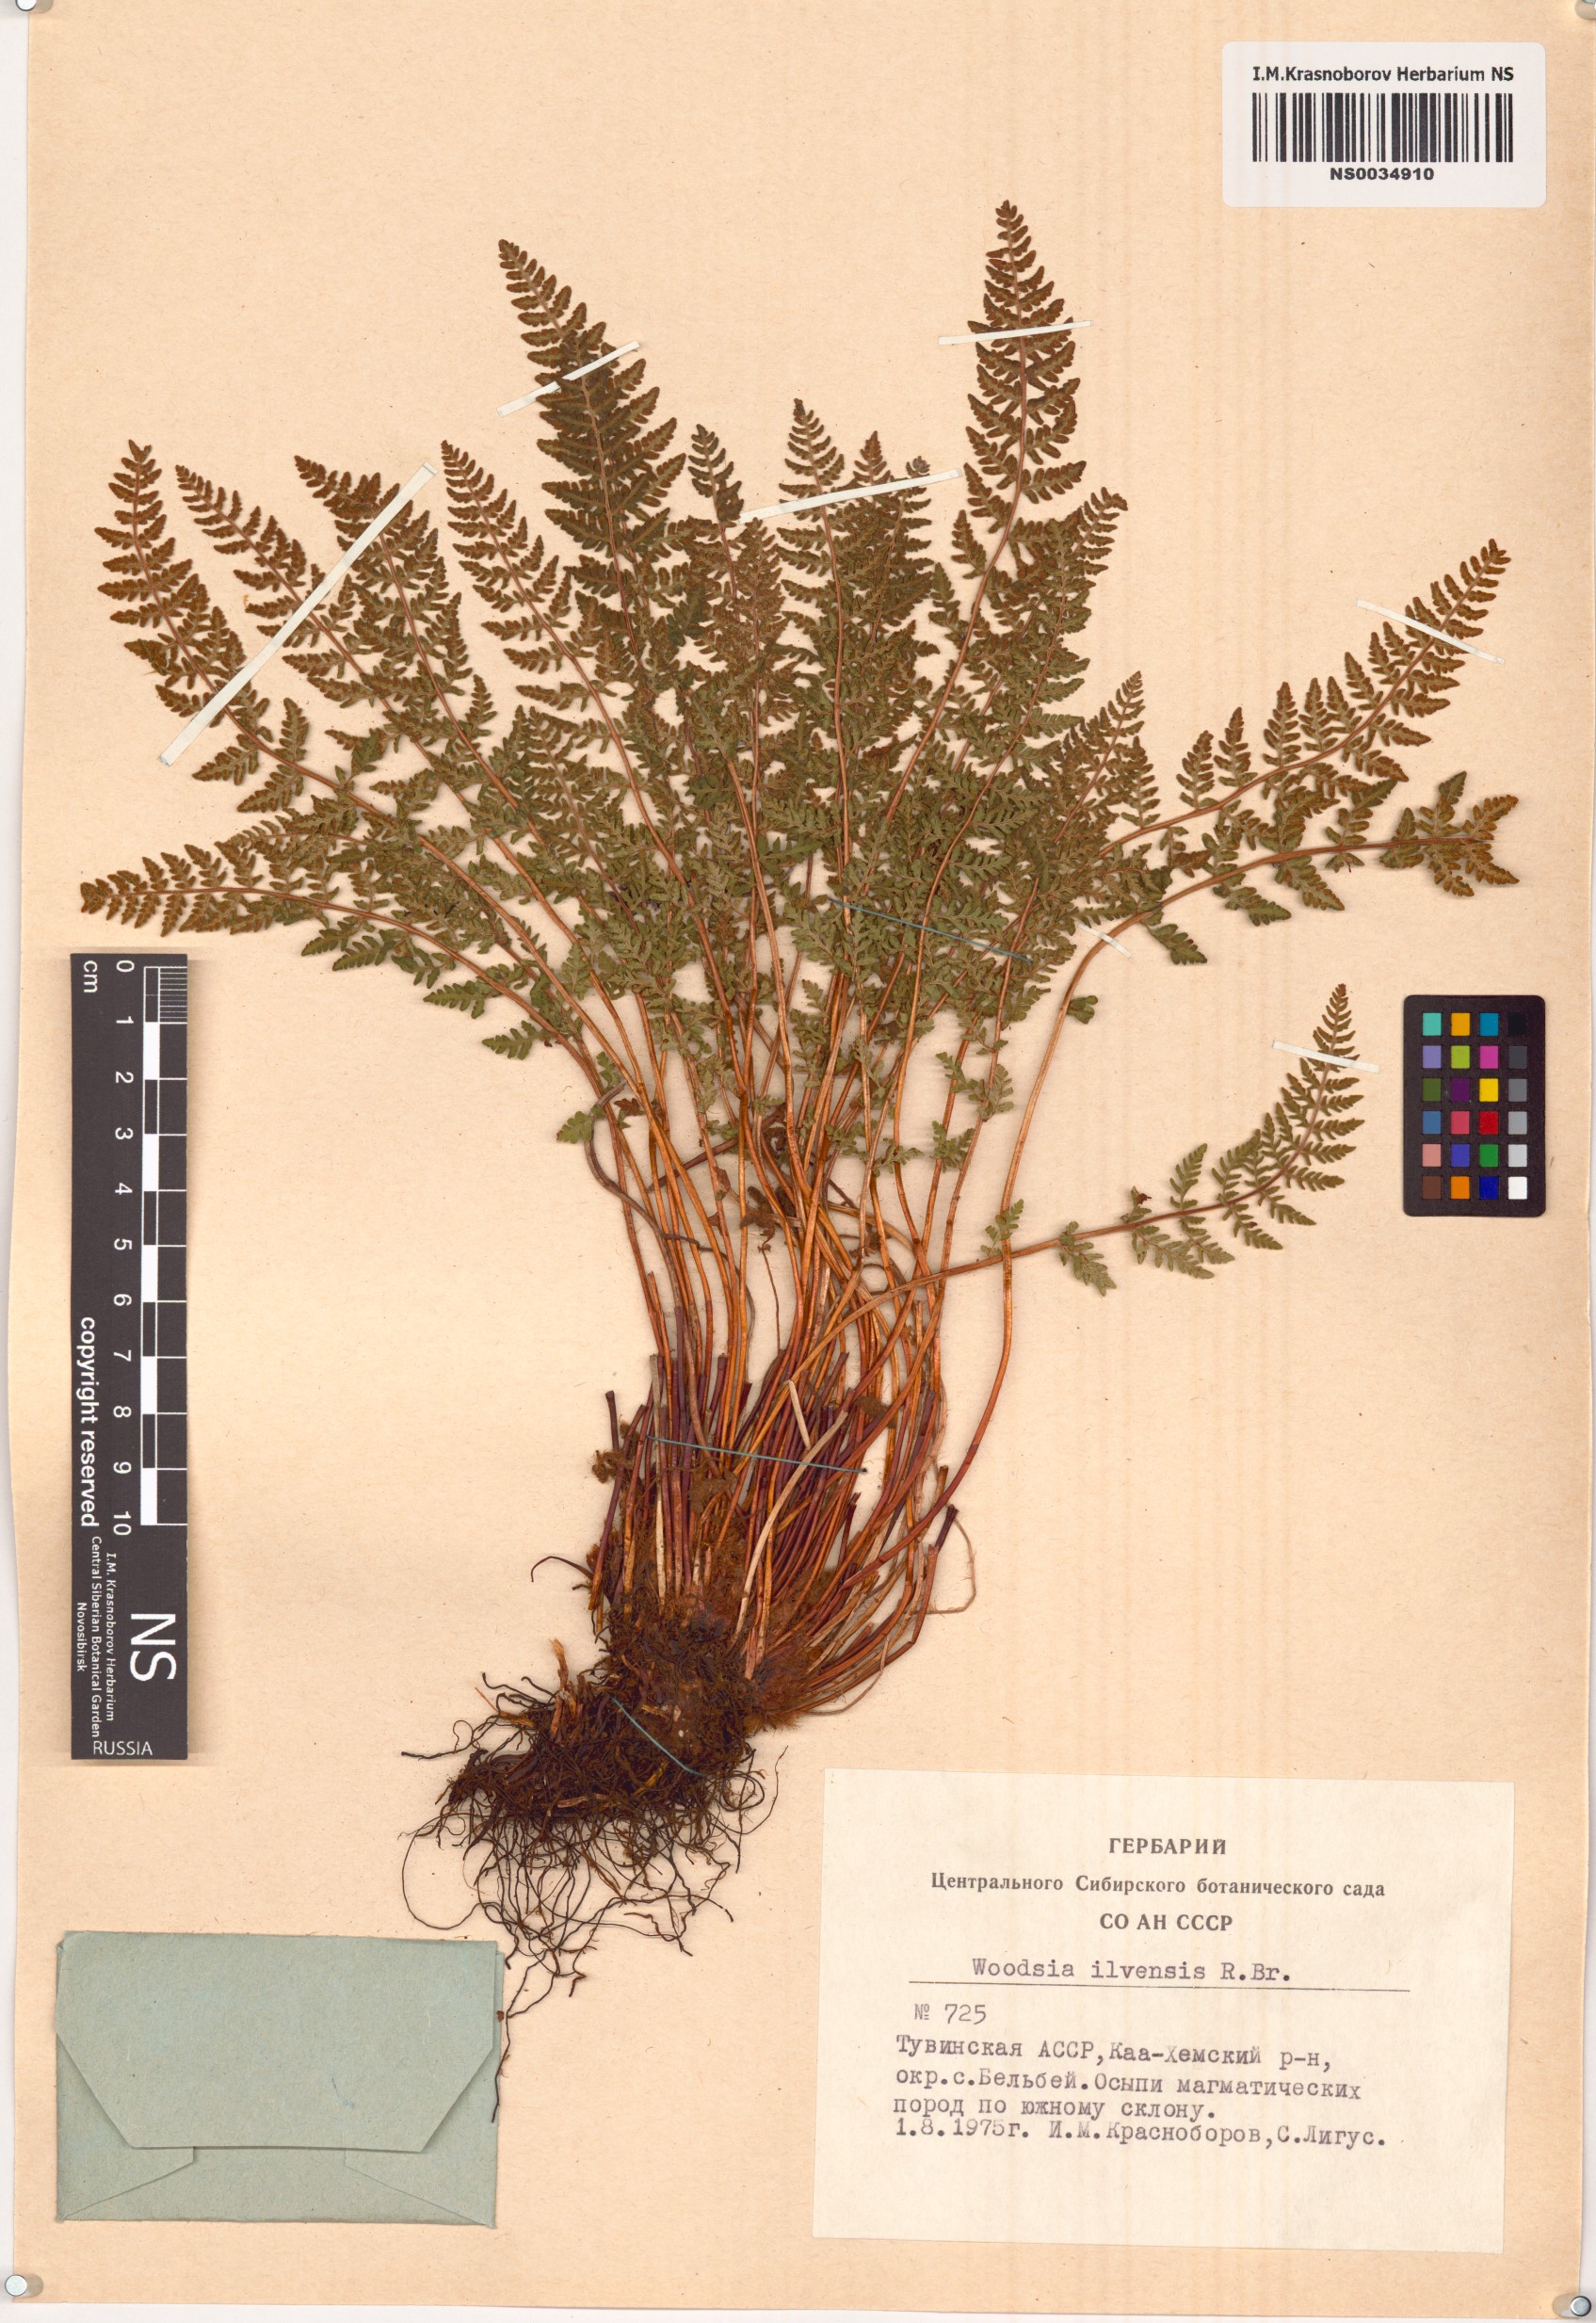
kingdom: Plantae
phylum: Tracheophyta
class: Polypodiopsida
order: Polypodiales
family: Woodsiaceae
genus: Woodsia
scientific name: Woodsia ilvensis
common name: Fragrant woodsia
